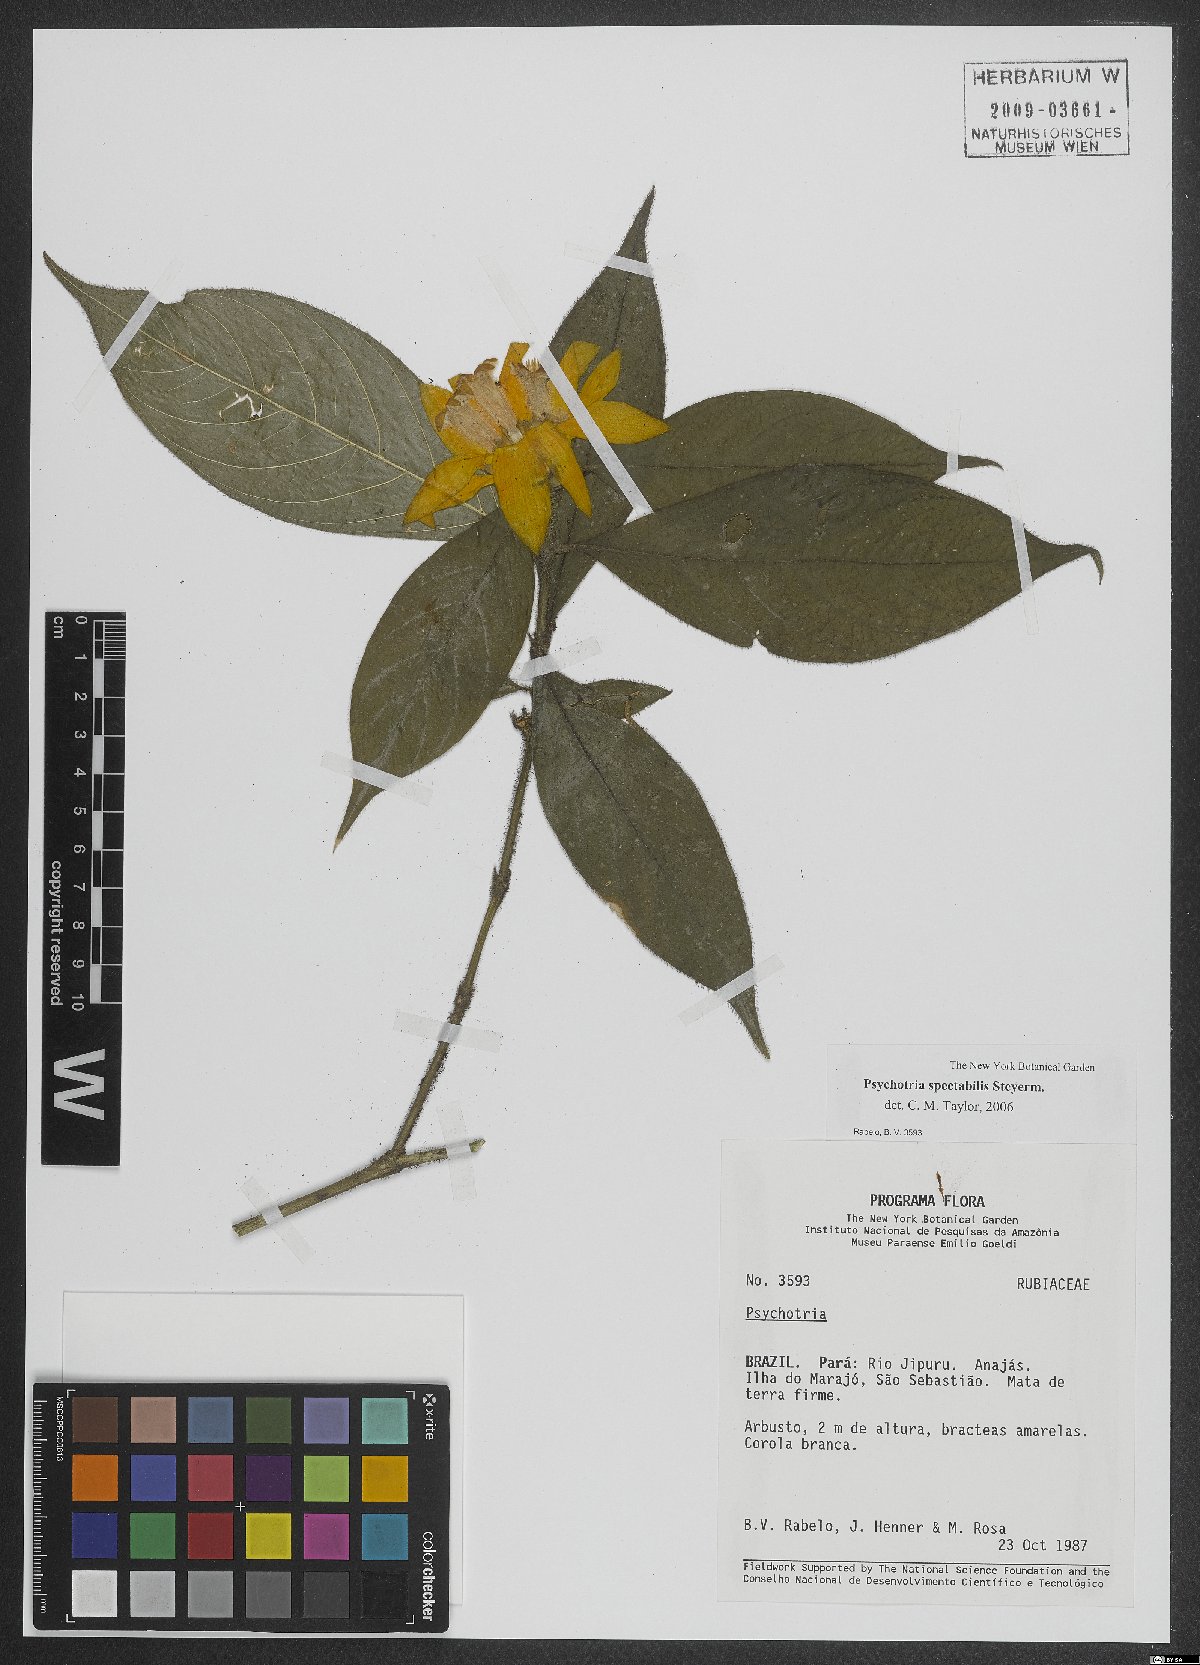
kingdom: Plantae
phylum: Tracheophyta
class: Magnoliopsida
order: Gentianales
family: Rubiaceae
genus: Palicourea
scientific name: Palicourea spectabilis
